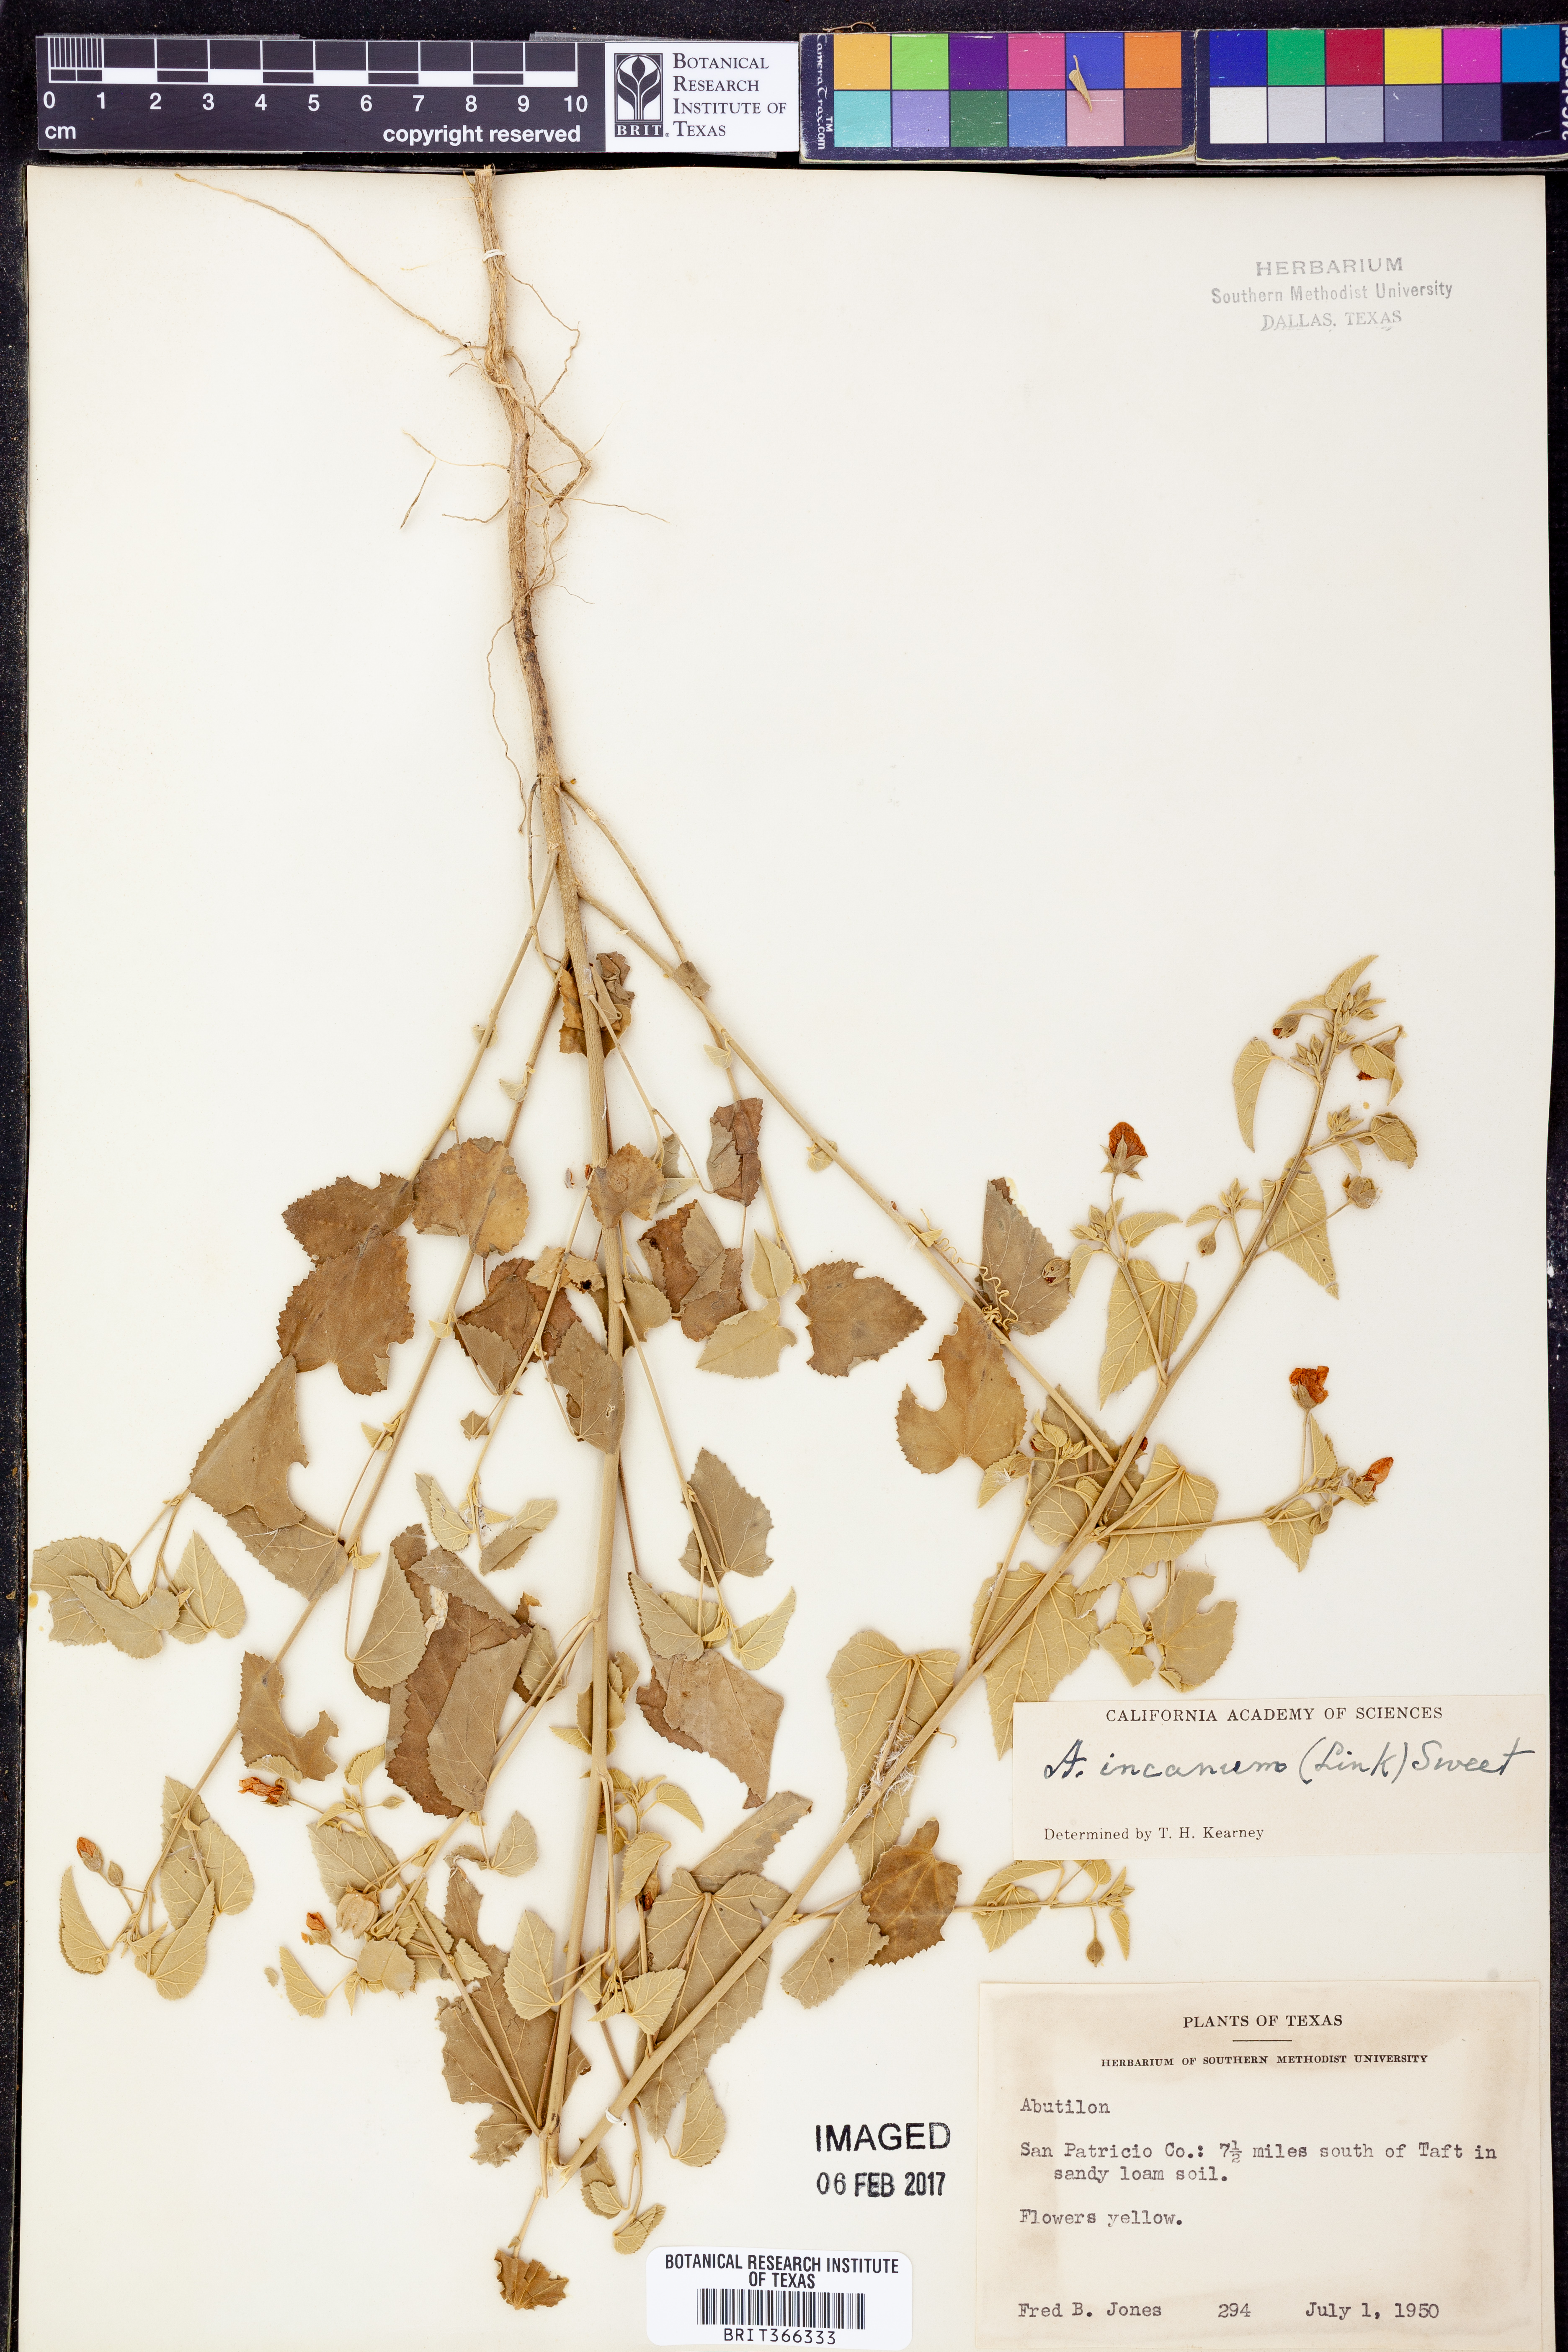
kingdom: Plantae
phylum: Tracheophyta
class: Magnoliopsida
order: Malvales
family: Malvaceae
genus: Abutilon
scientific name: Abutilon incanum
